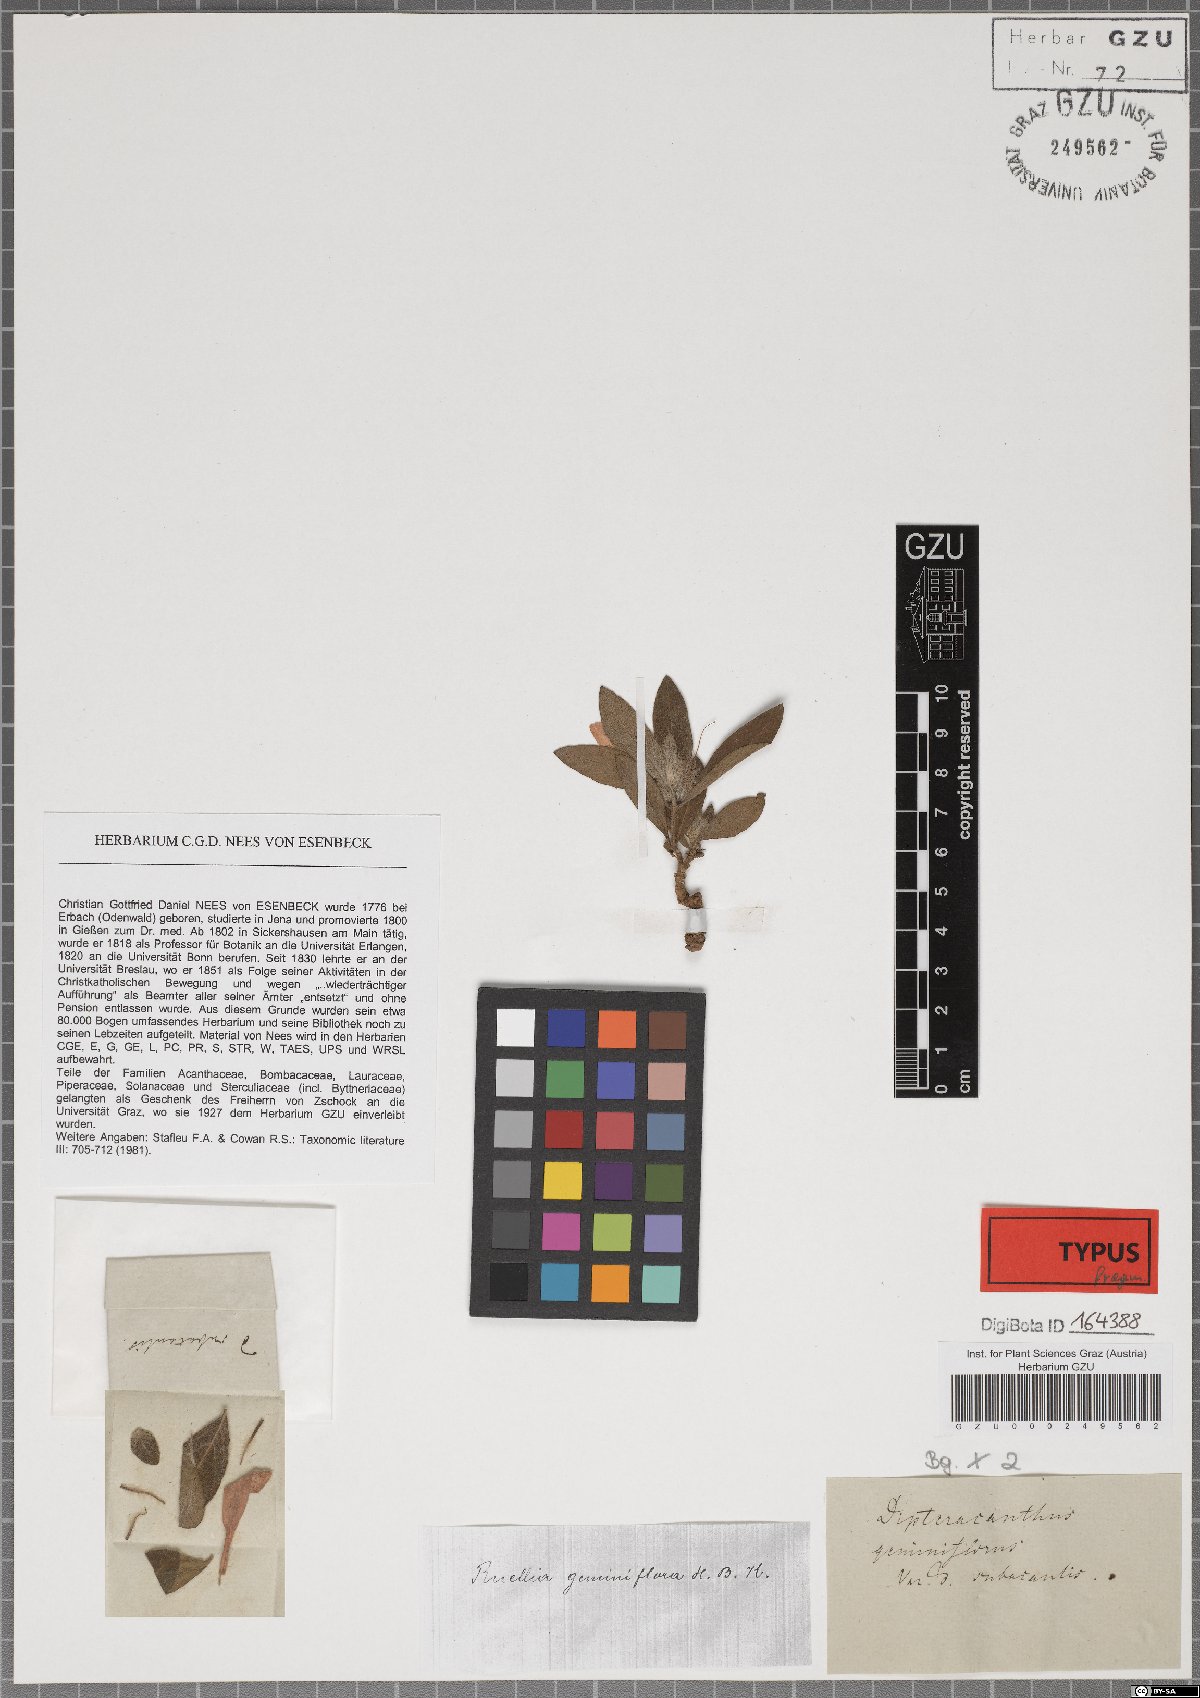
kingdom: Plantae
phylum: Tracheophyta
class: Magnoliopsida
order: Lamiales
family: Acanthaceae
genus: Ruellia
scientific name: Ruellia geminiflora
